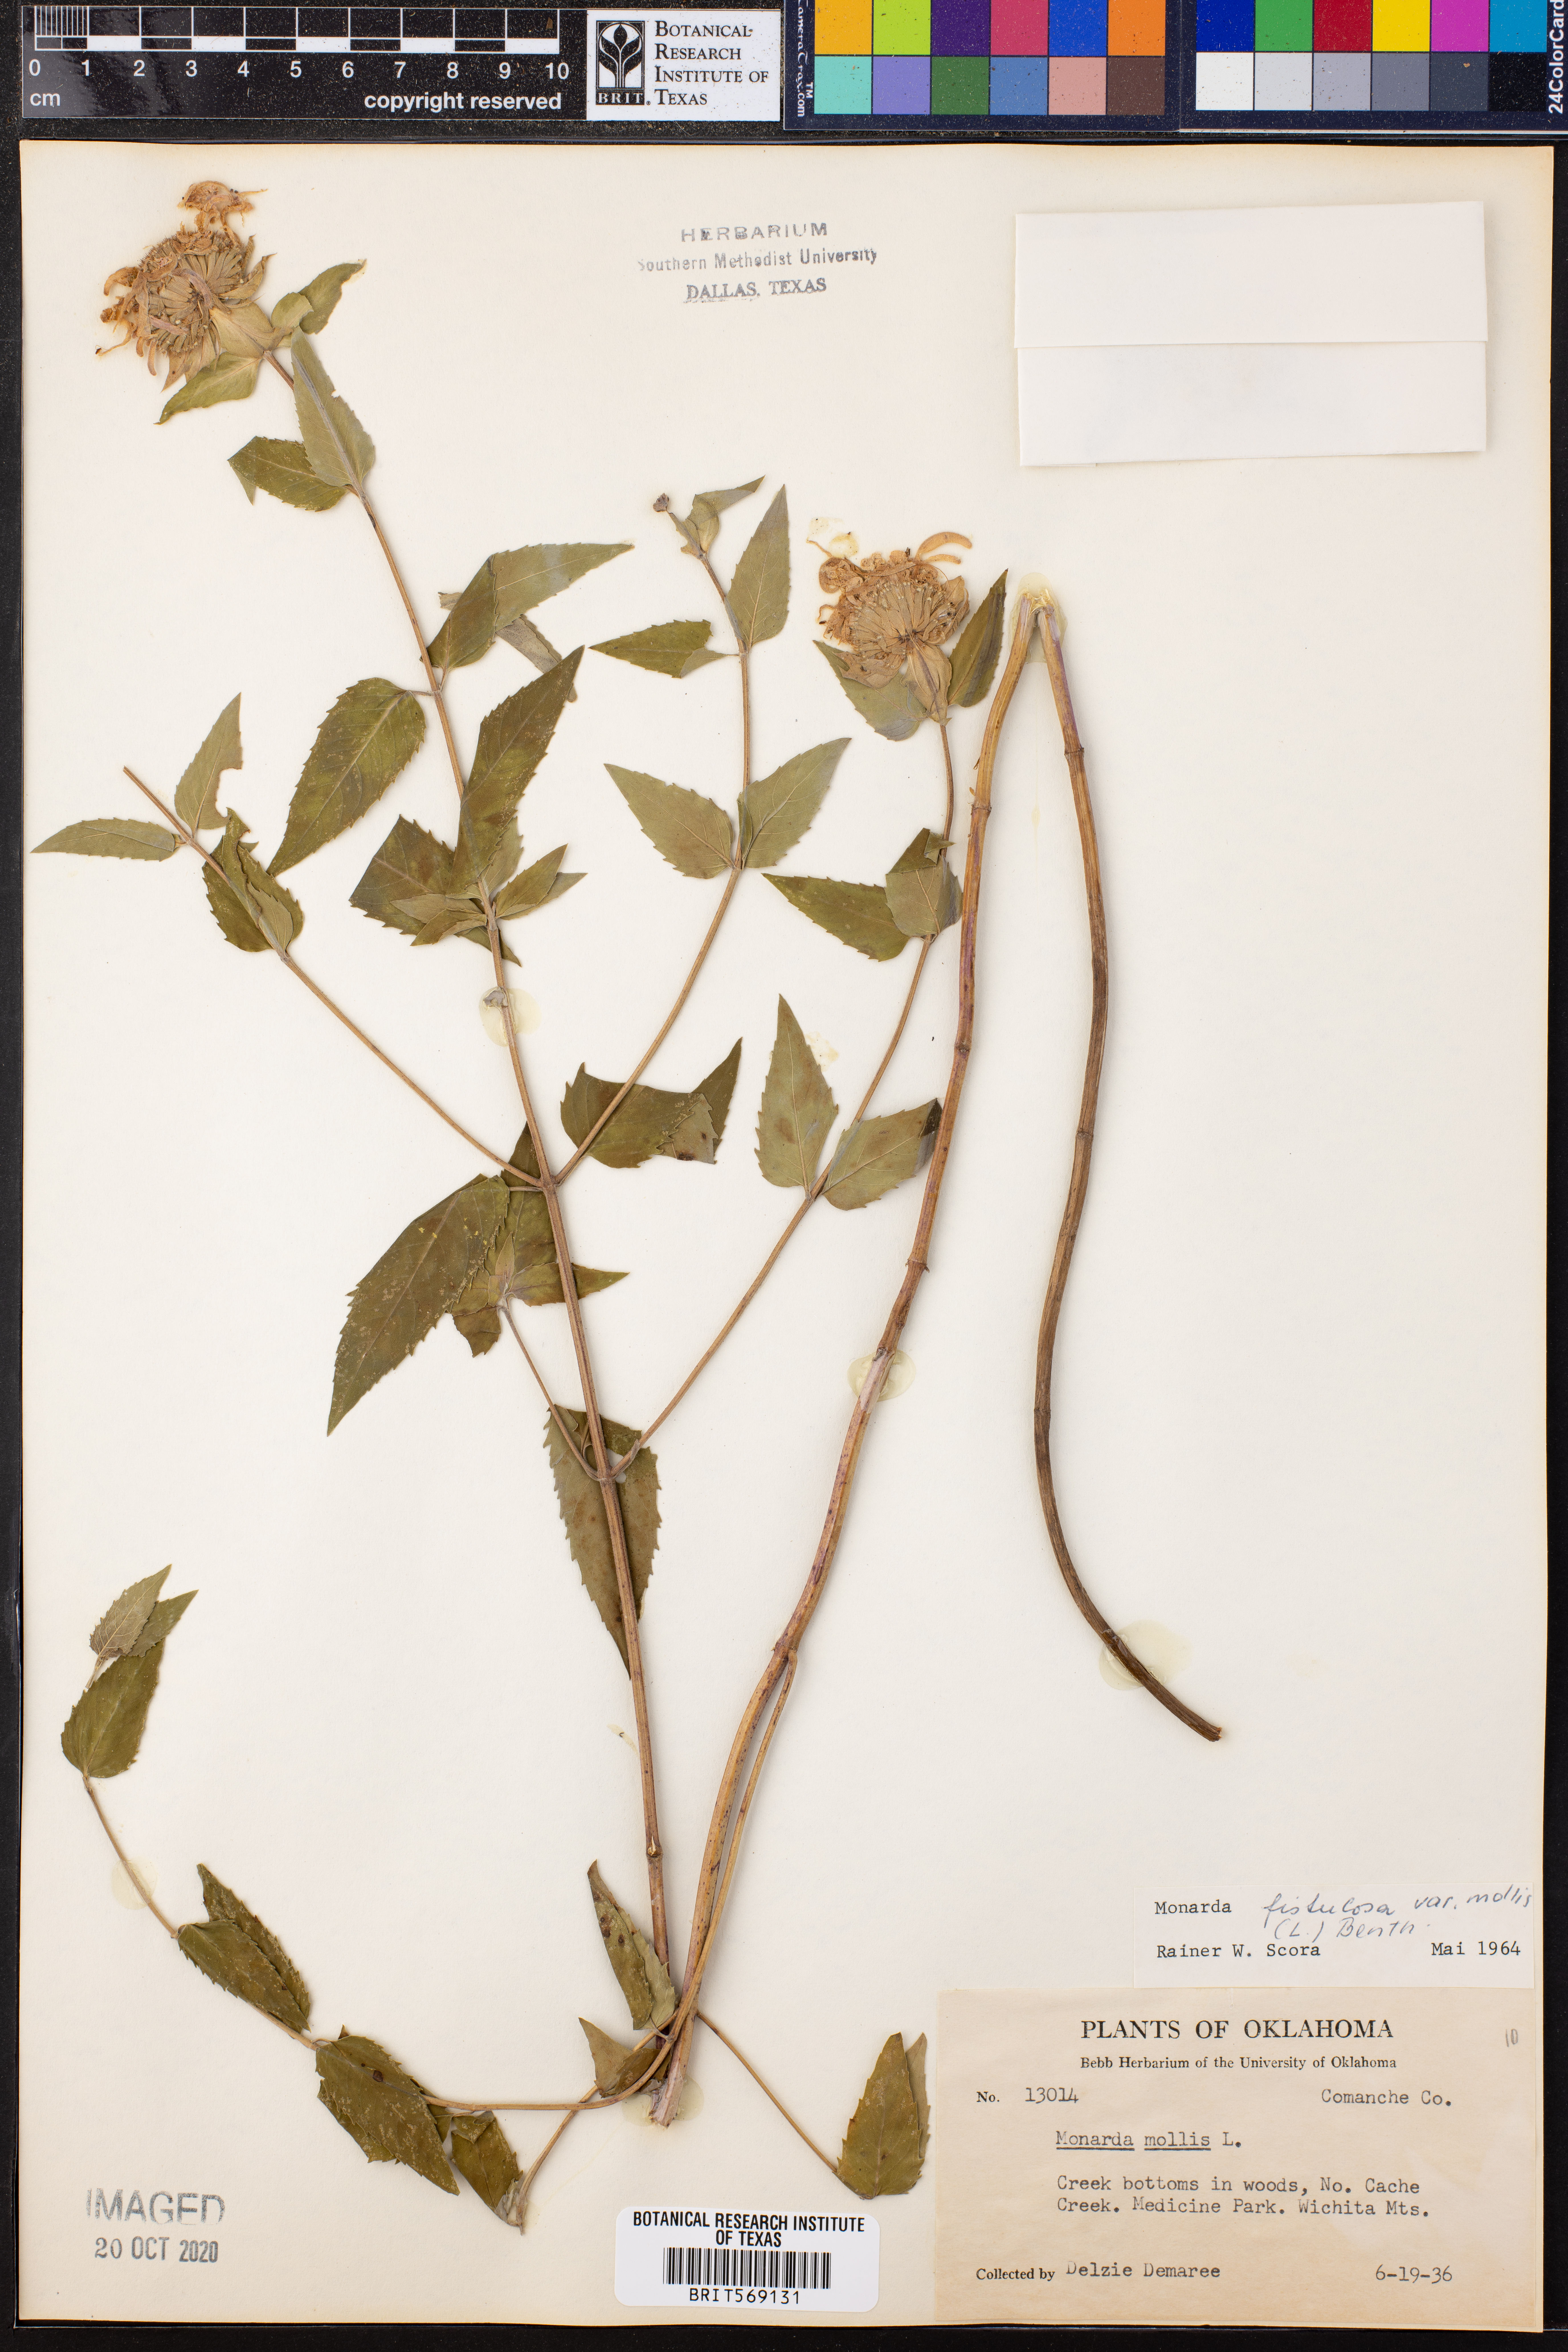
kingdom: Plantae
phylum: Tracheophyta
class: Magnoliopsida
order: Lamiales
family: Lamiaceae
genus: Monarda
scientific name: Monarda fistulosa
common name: Purple beebalm
